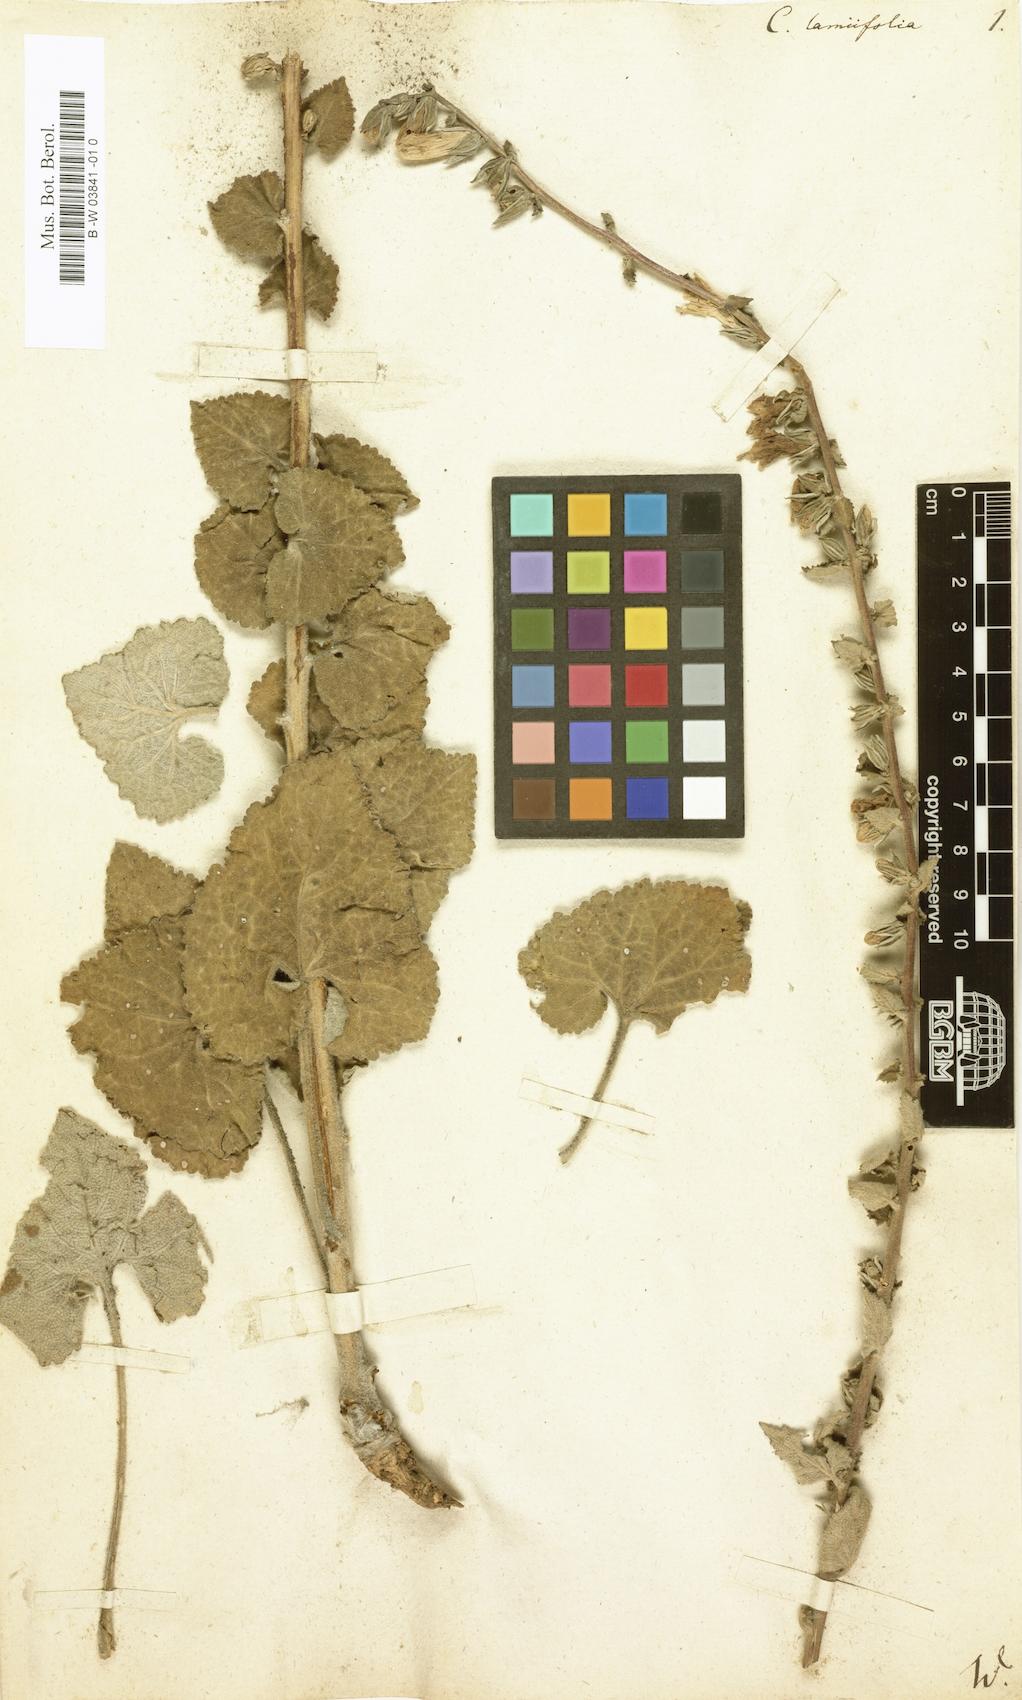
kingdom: Plantae
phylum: Tracheophyta
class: Magnoliopsida
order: Asterales
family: Campanulaceae
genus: Campanula
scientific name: Campanula alliariifolia
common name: Cornish bellflower
